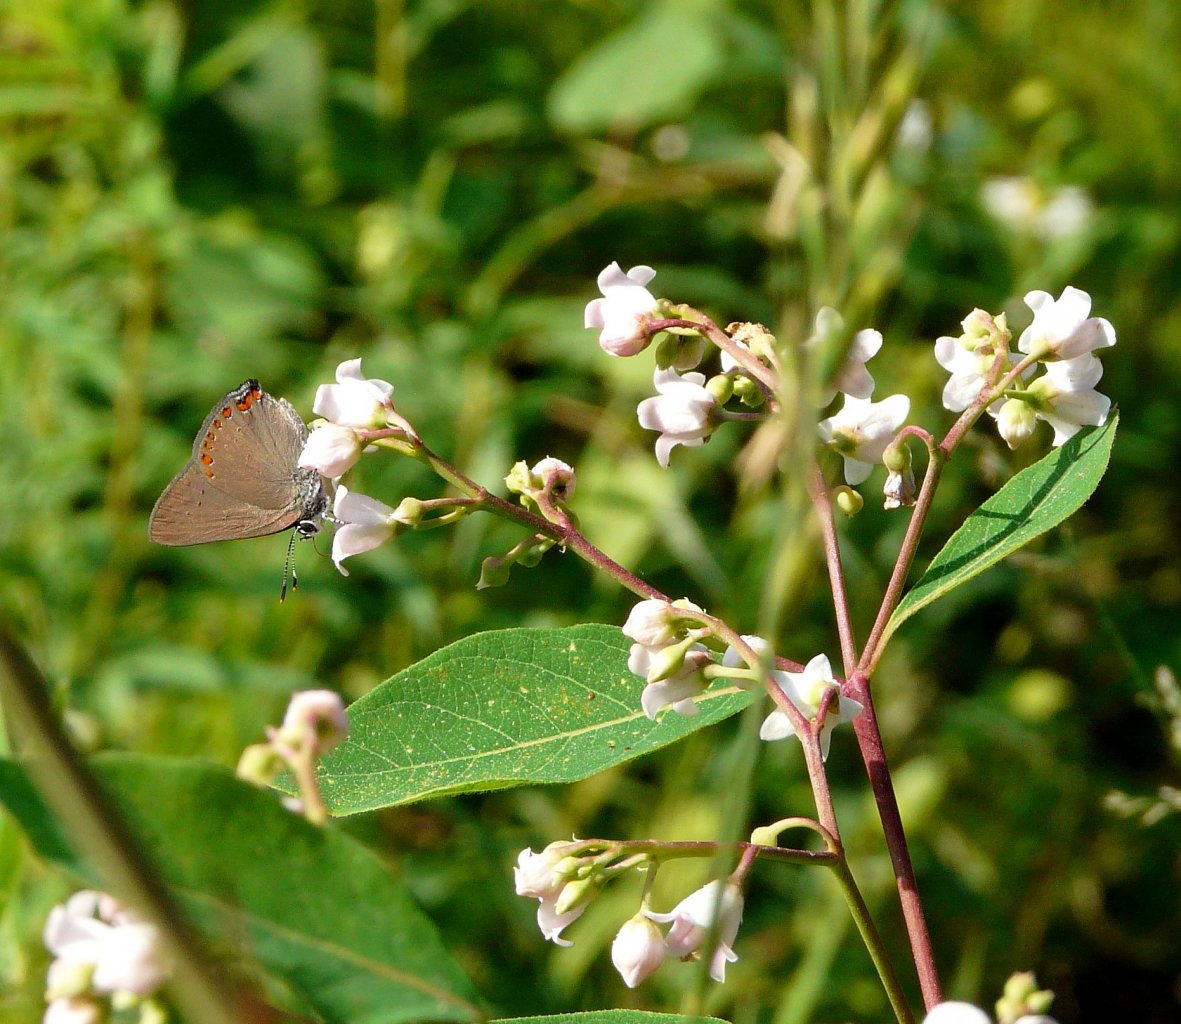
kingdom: Animalia
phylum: Arthropoda
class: Insecta
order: Lepidoptera
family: Lycaenidae
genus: Harkenclenus
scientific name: Harkenclenus titus
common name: Coral Hairstreak
